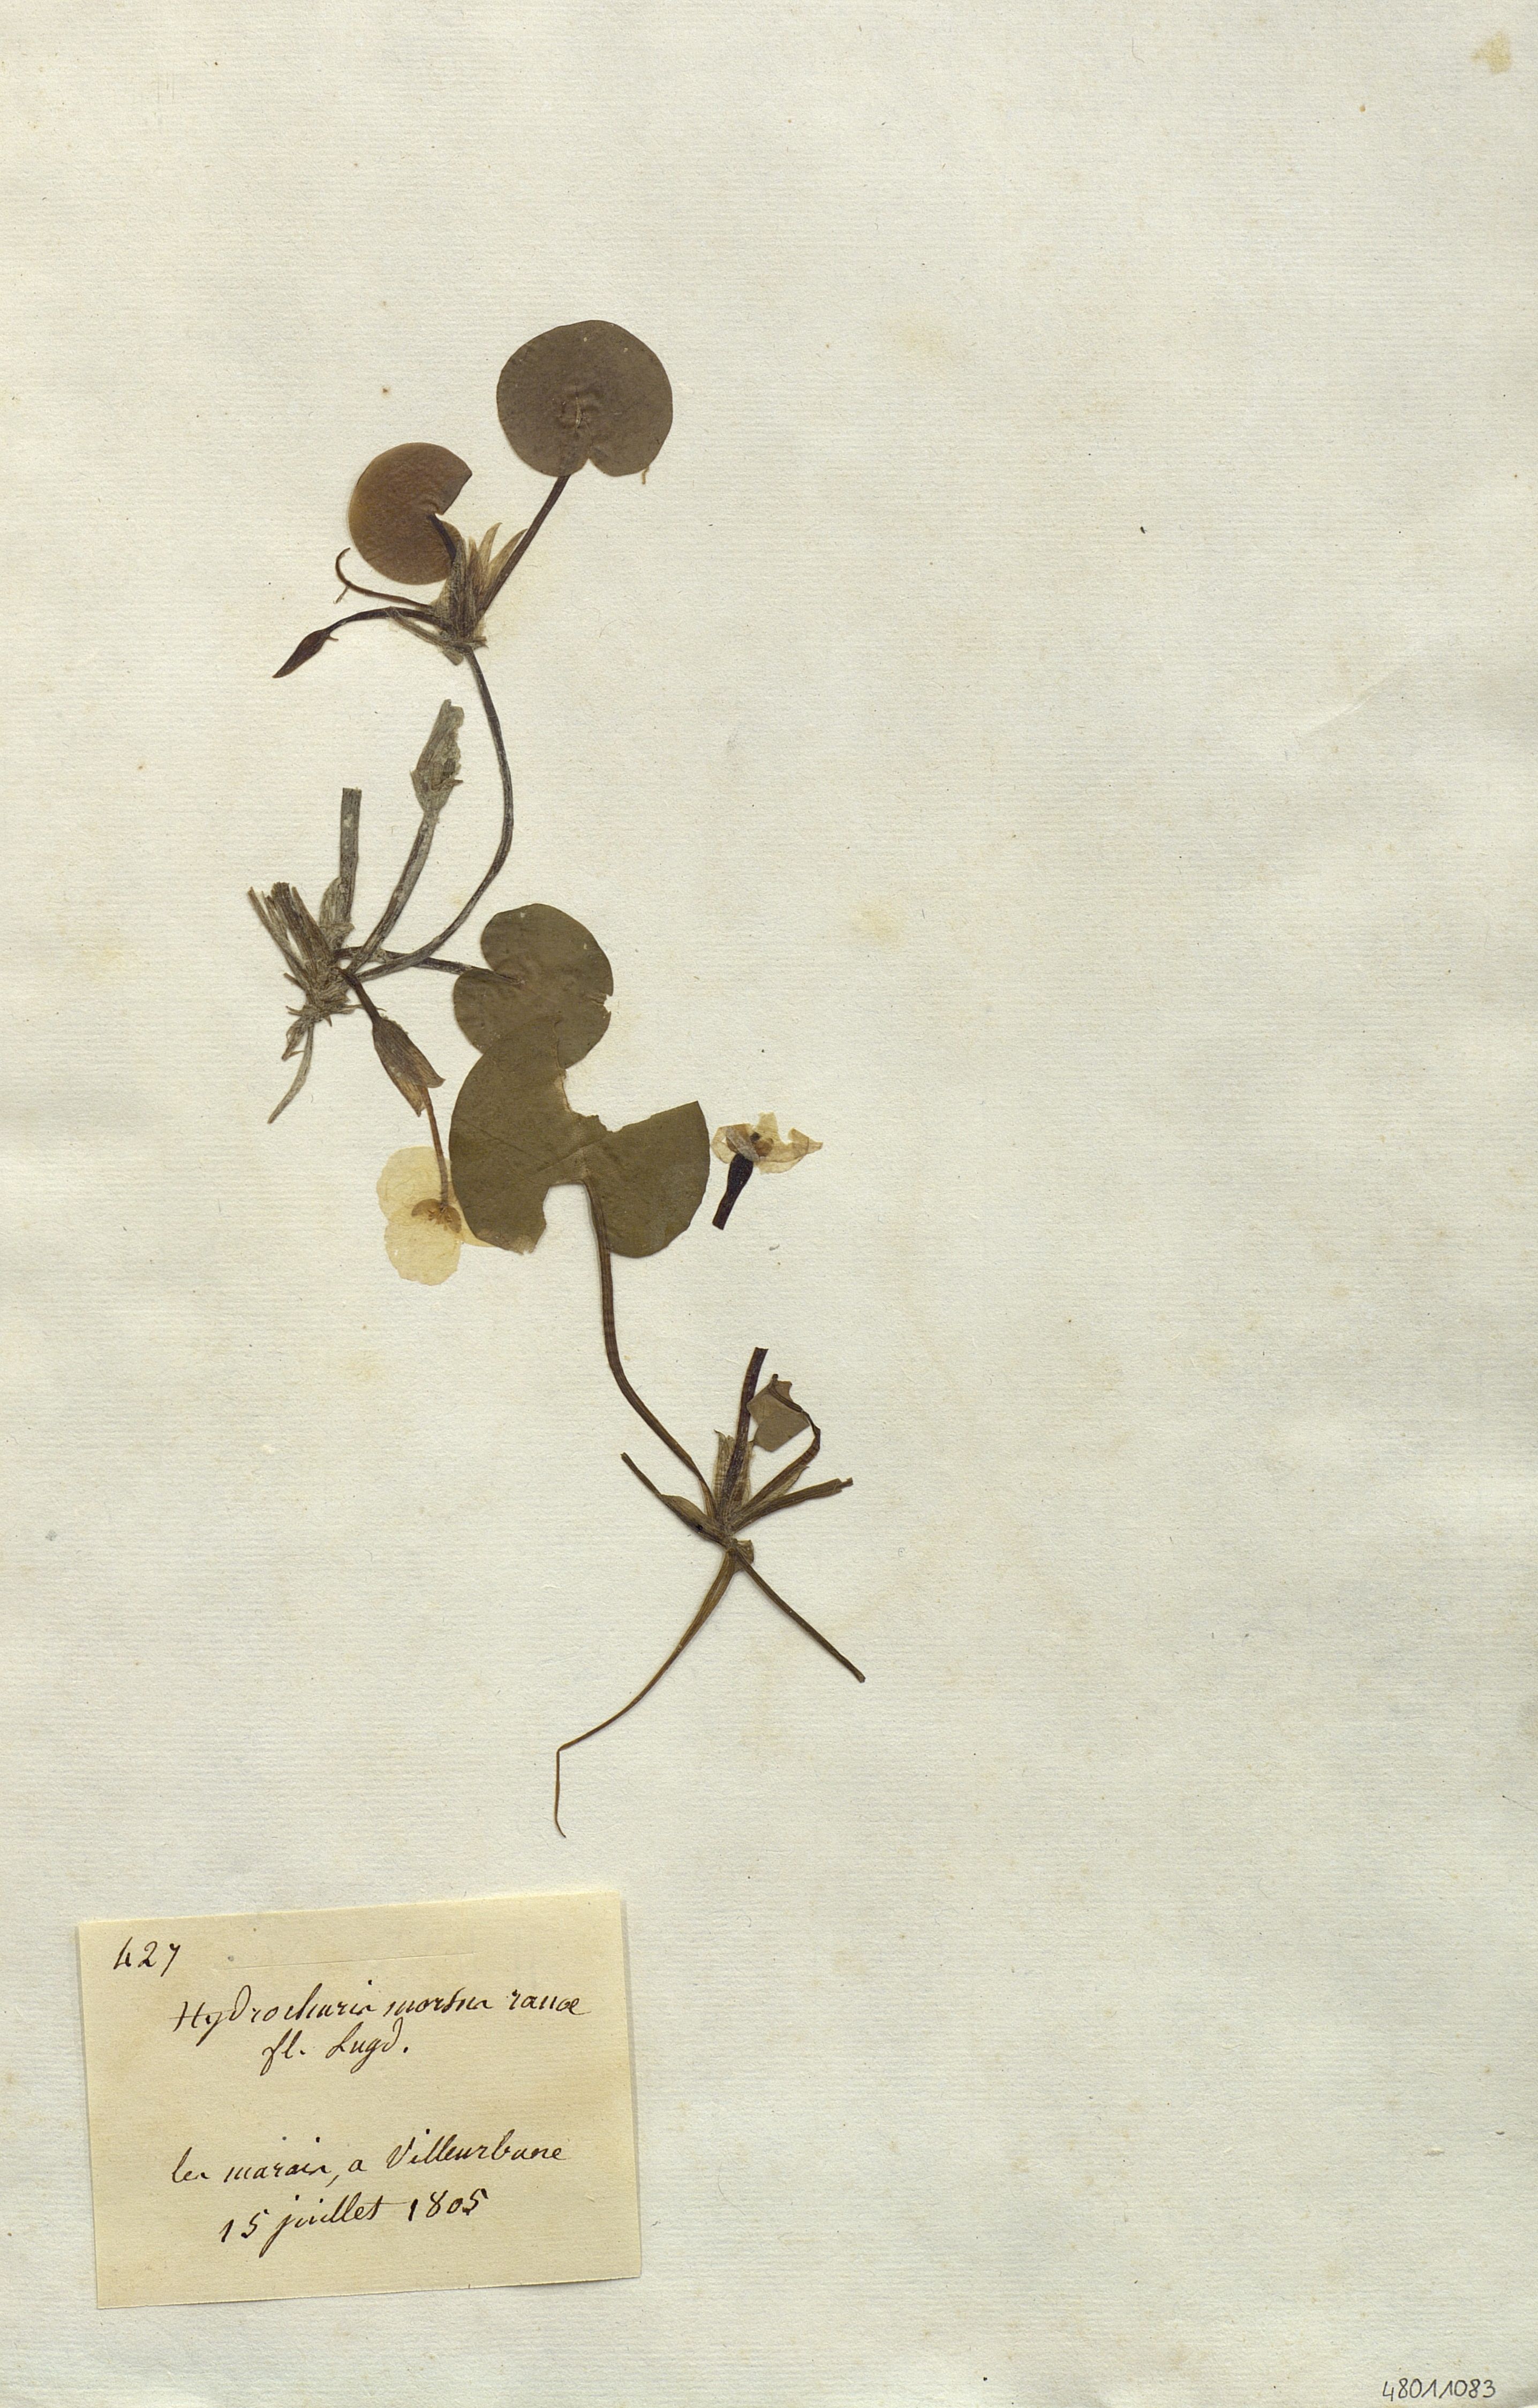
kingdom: Plantae
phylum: Tracheophyta
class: Liliopsida
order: Alismatales
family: Hydrocharitaceae
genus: Hydrocharis
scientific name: Hydrocharis morsus-ranae
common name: Frogbit
